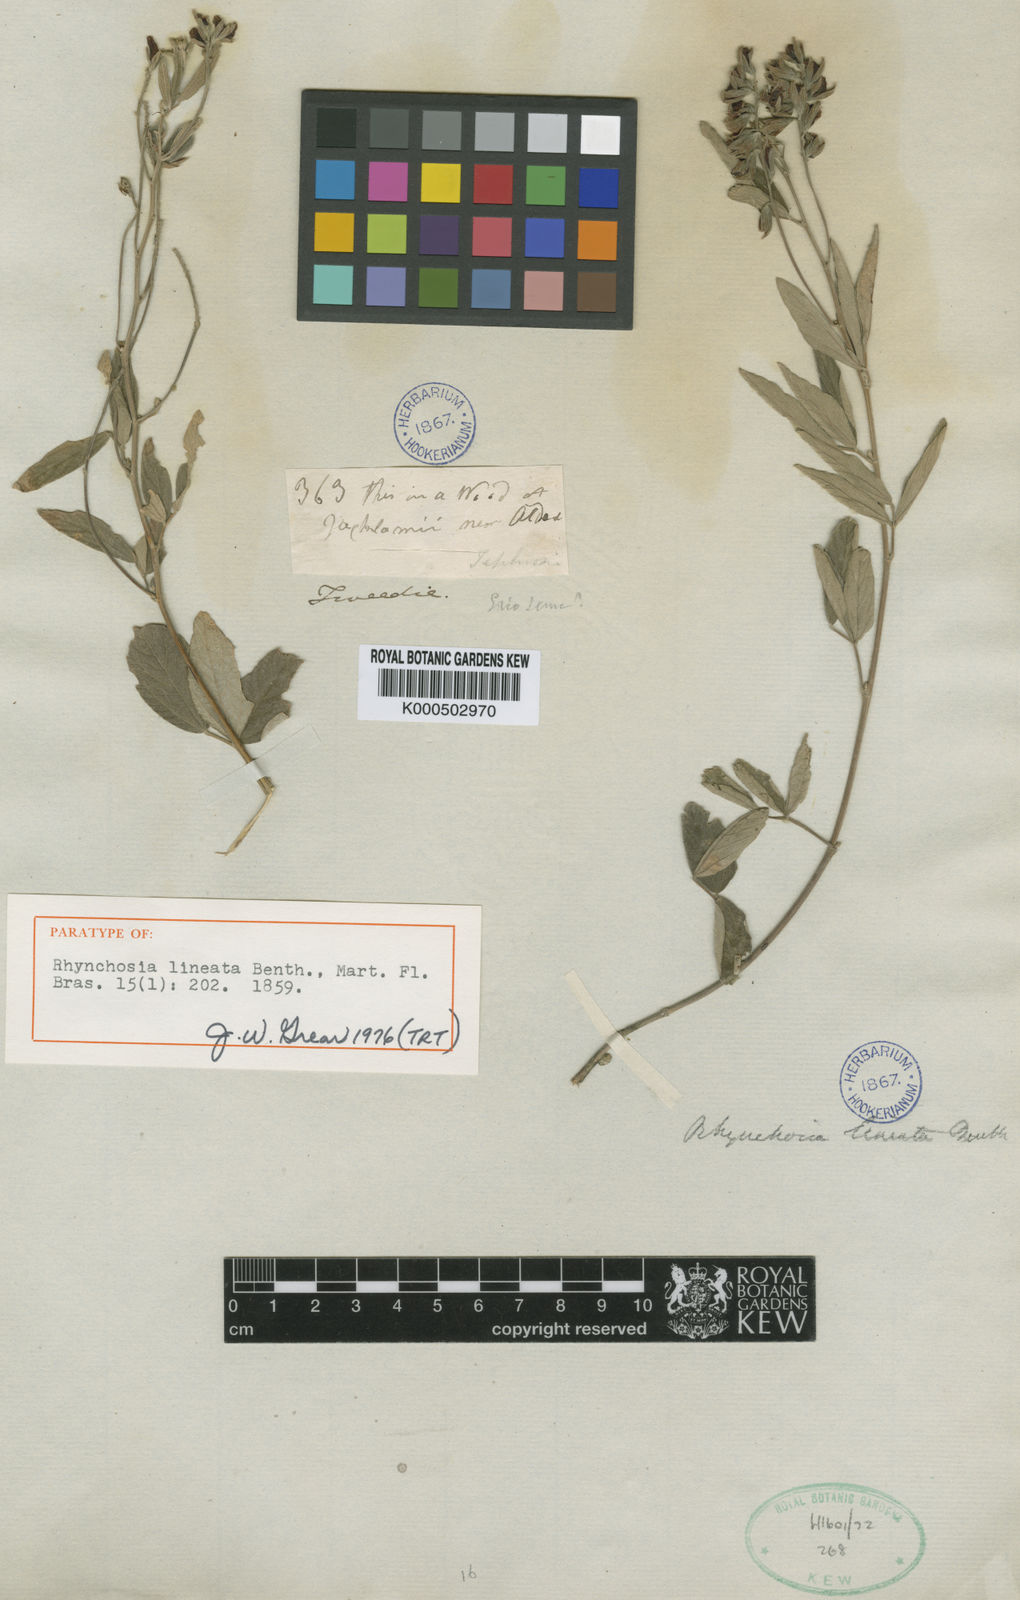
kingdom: Plantae
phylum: Tracheophyta
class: Magnoliopsida
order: Fabales
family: Fabaceae
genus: Rhynchosia
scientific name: Rhynchosia lineata
